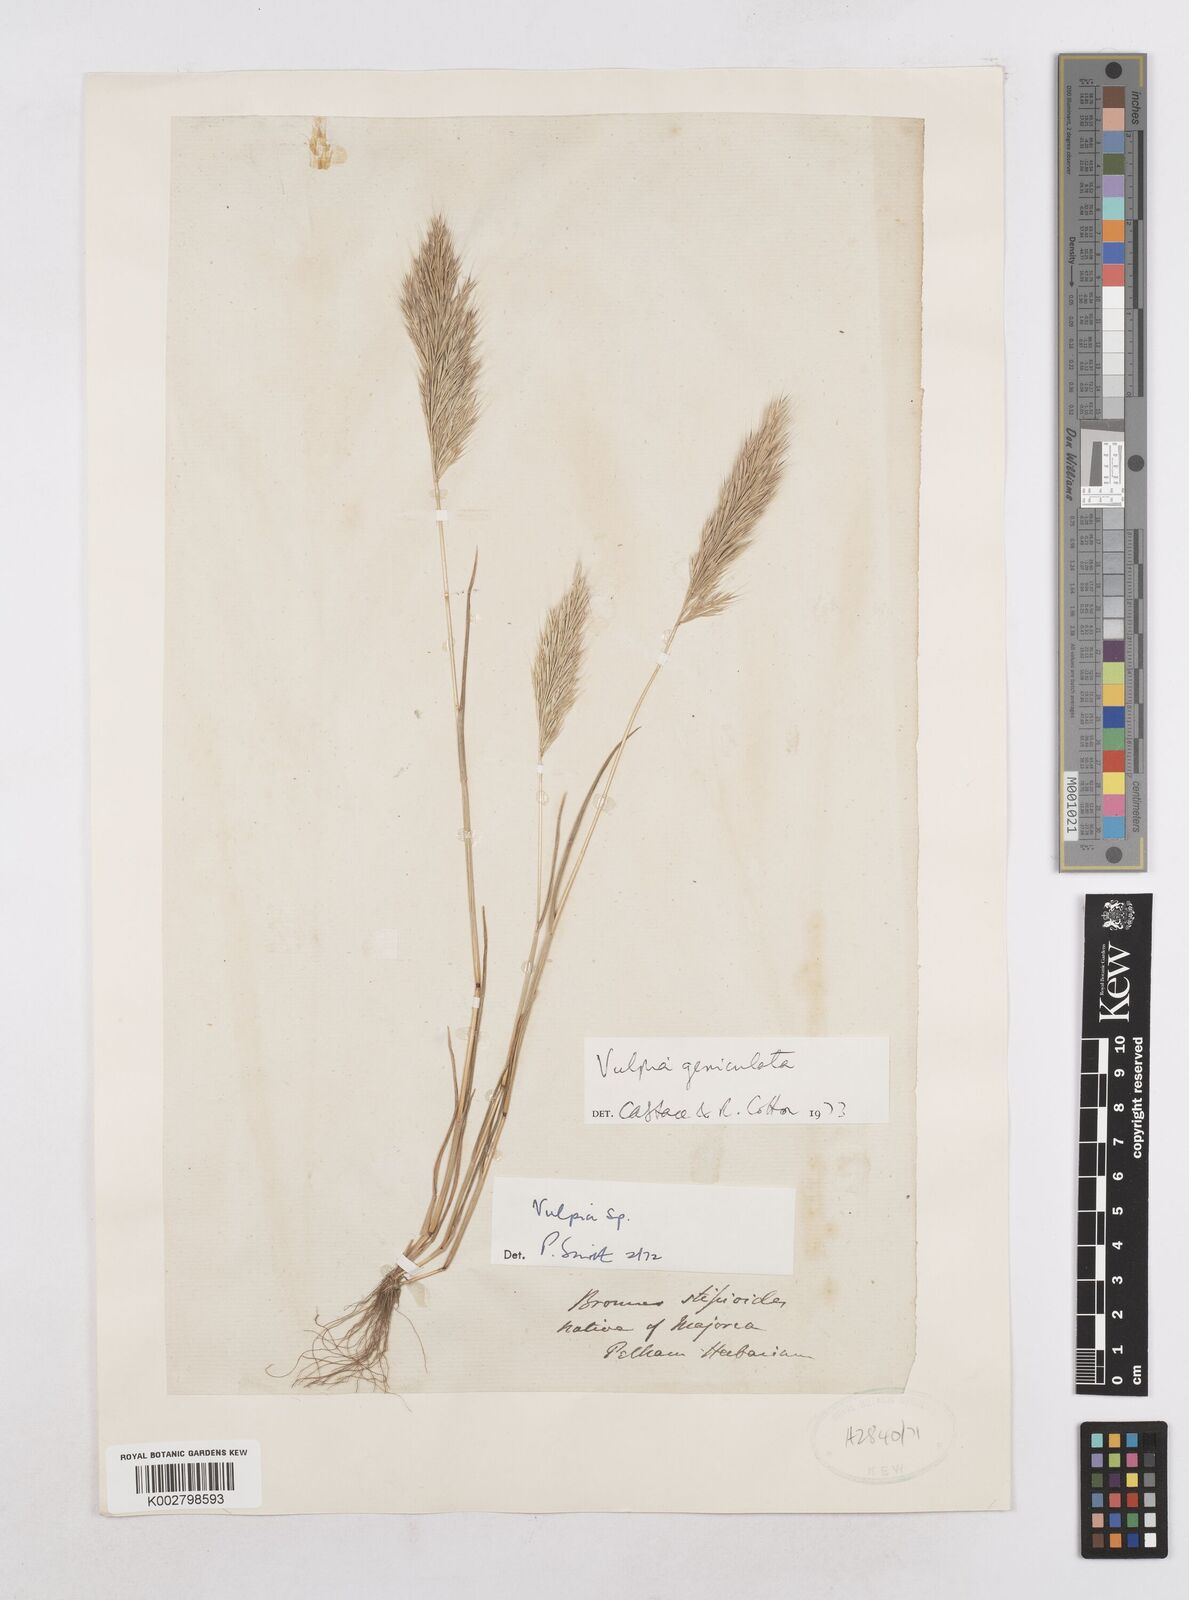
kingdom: Plantae
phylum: Tracheophyta
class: Liliopsida
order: Poales
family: Poaceae
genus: Festuca
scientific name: Festuca geniculata
